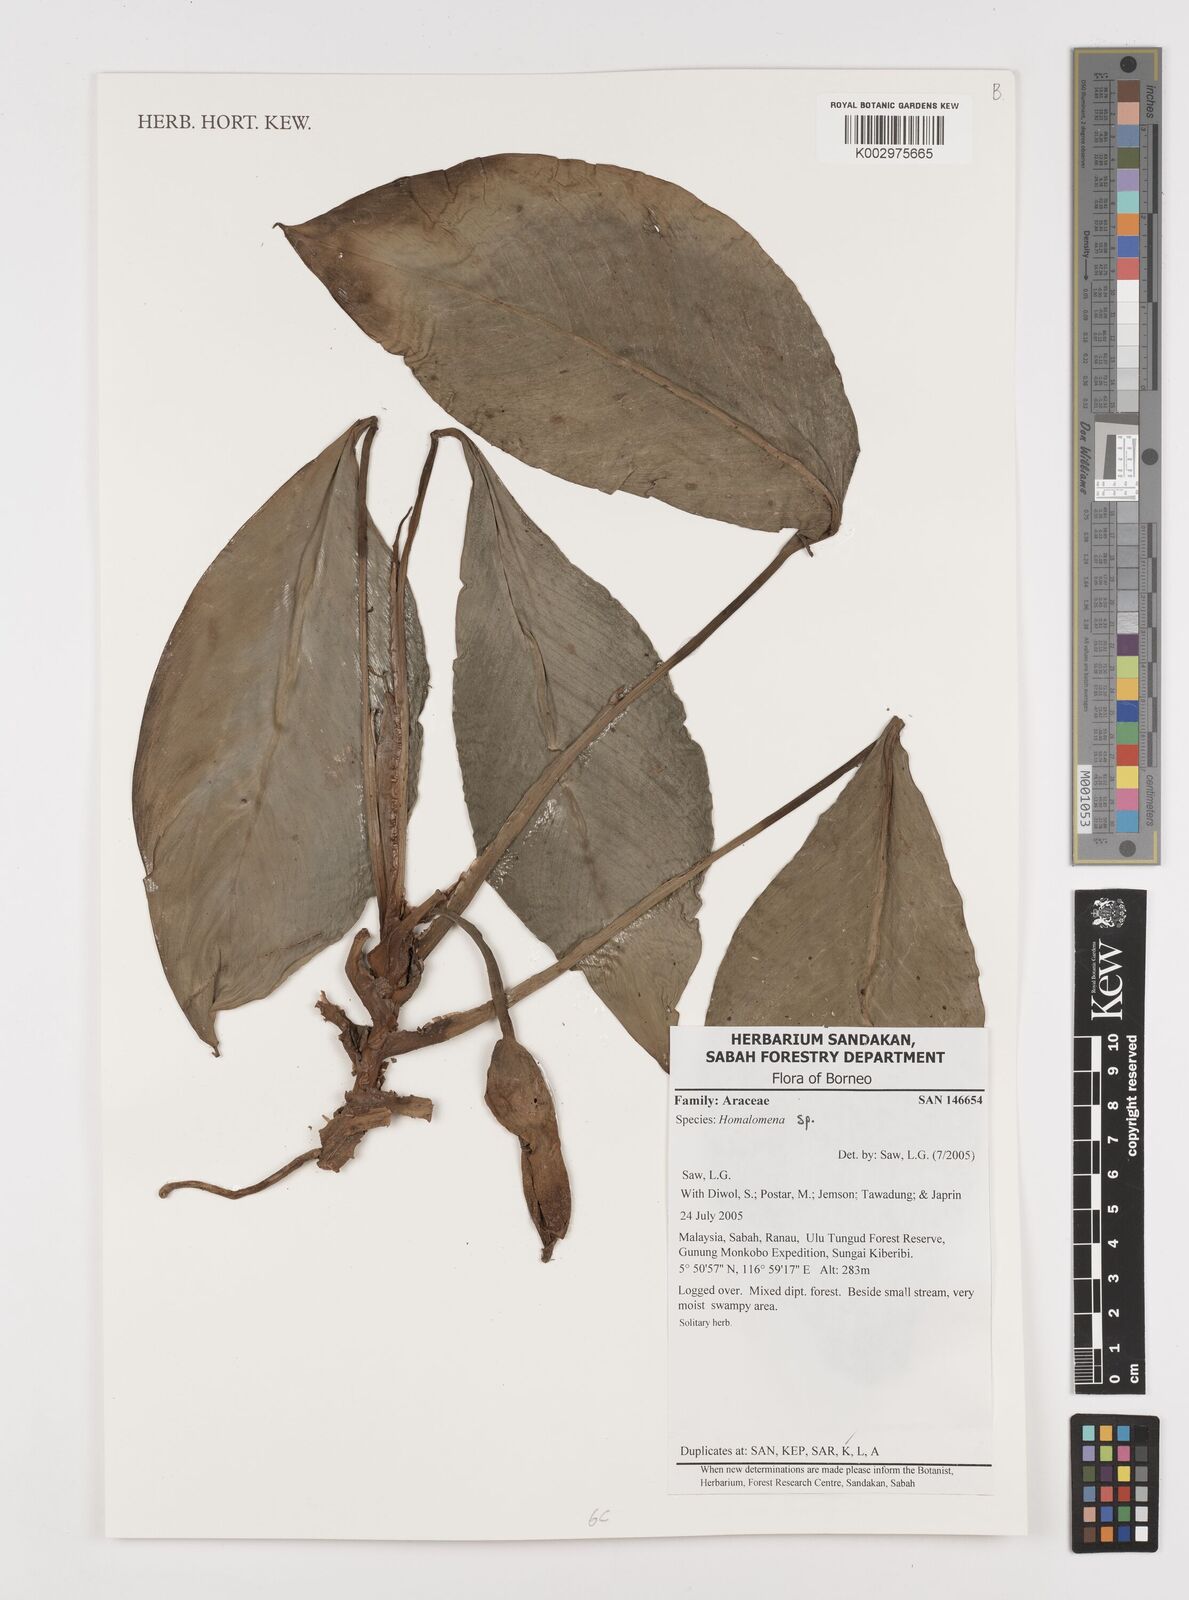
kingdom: Plantae
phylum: Tracheophyta
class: Liliopsida
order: Alismatales
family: Araceae
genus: Homalomena
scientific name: Homalomena
